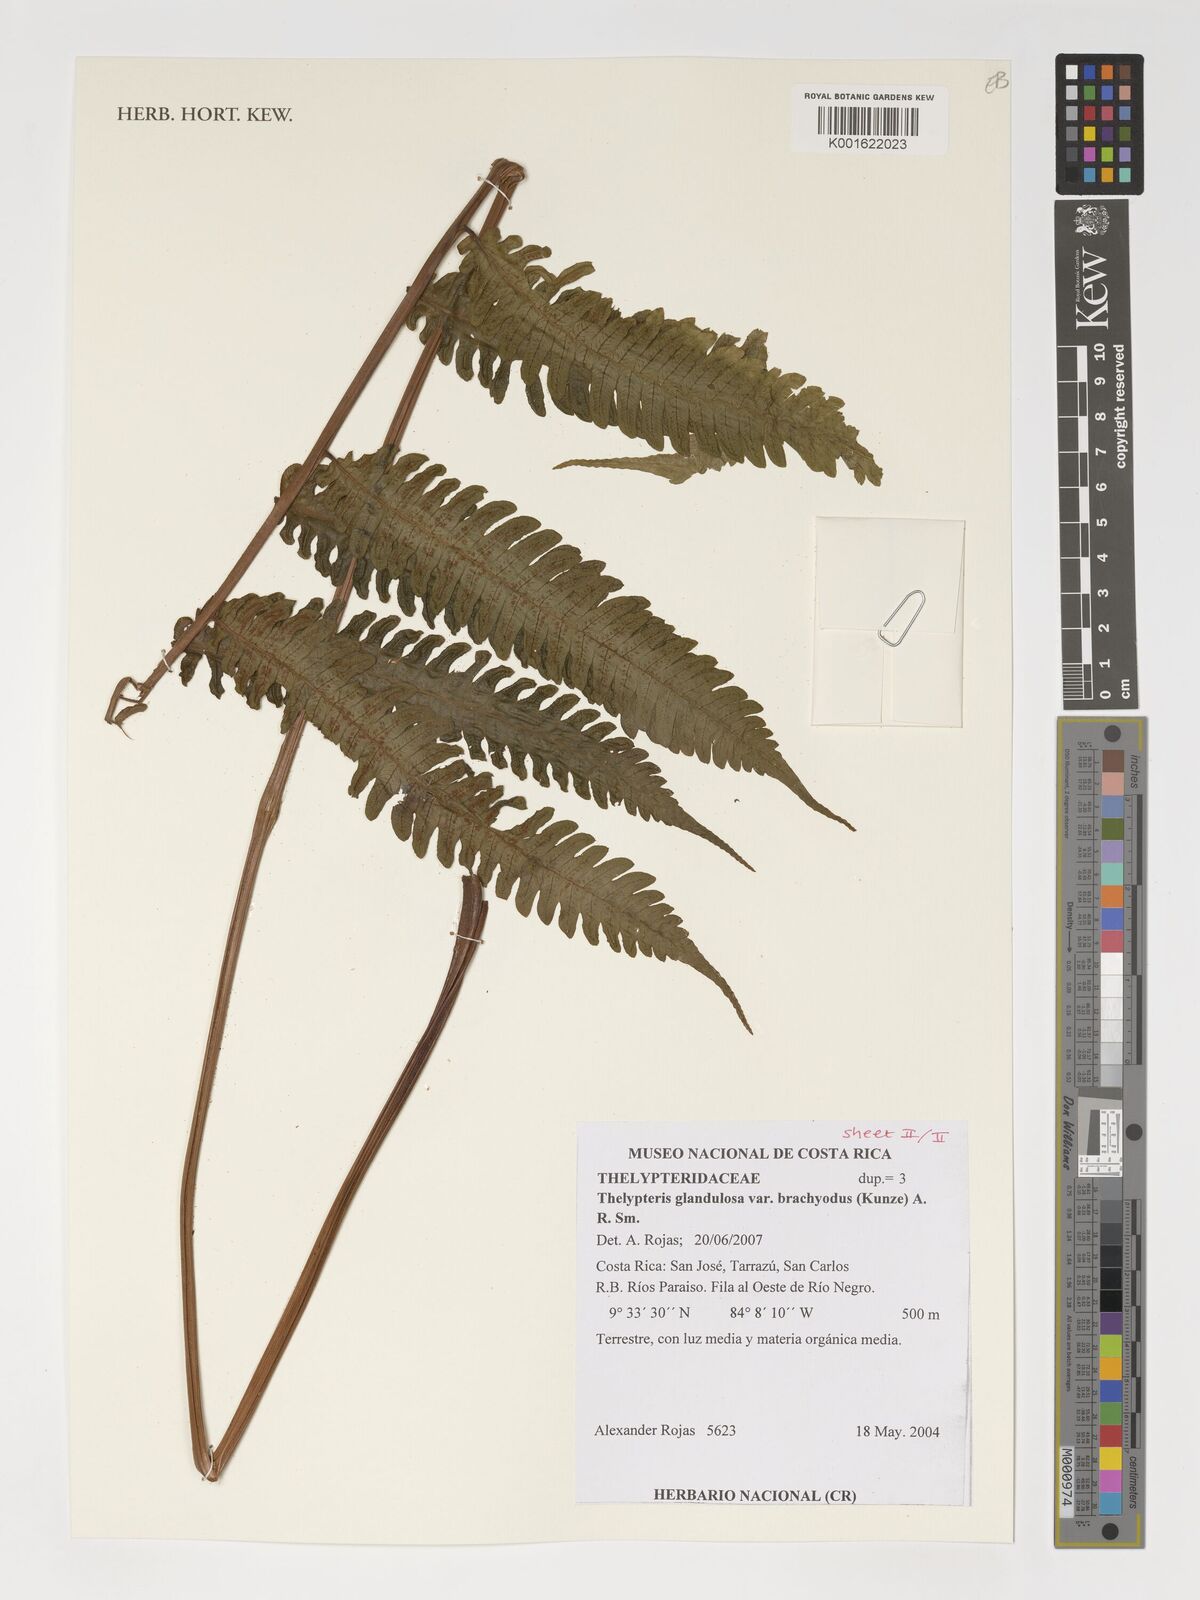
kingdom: Plantae
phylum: Tracheophyta
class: Polypodiopsida
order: Polypodiales
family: Thelypteridaceae
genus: Steiropteris
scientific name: Steiropteris glandulosa
